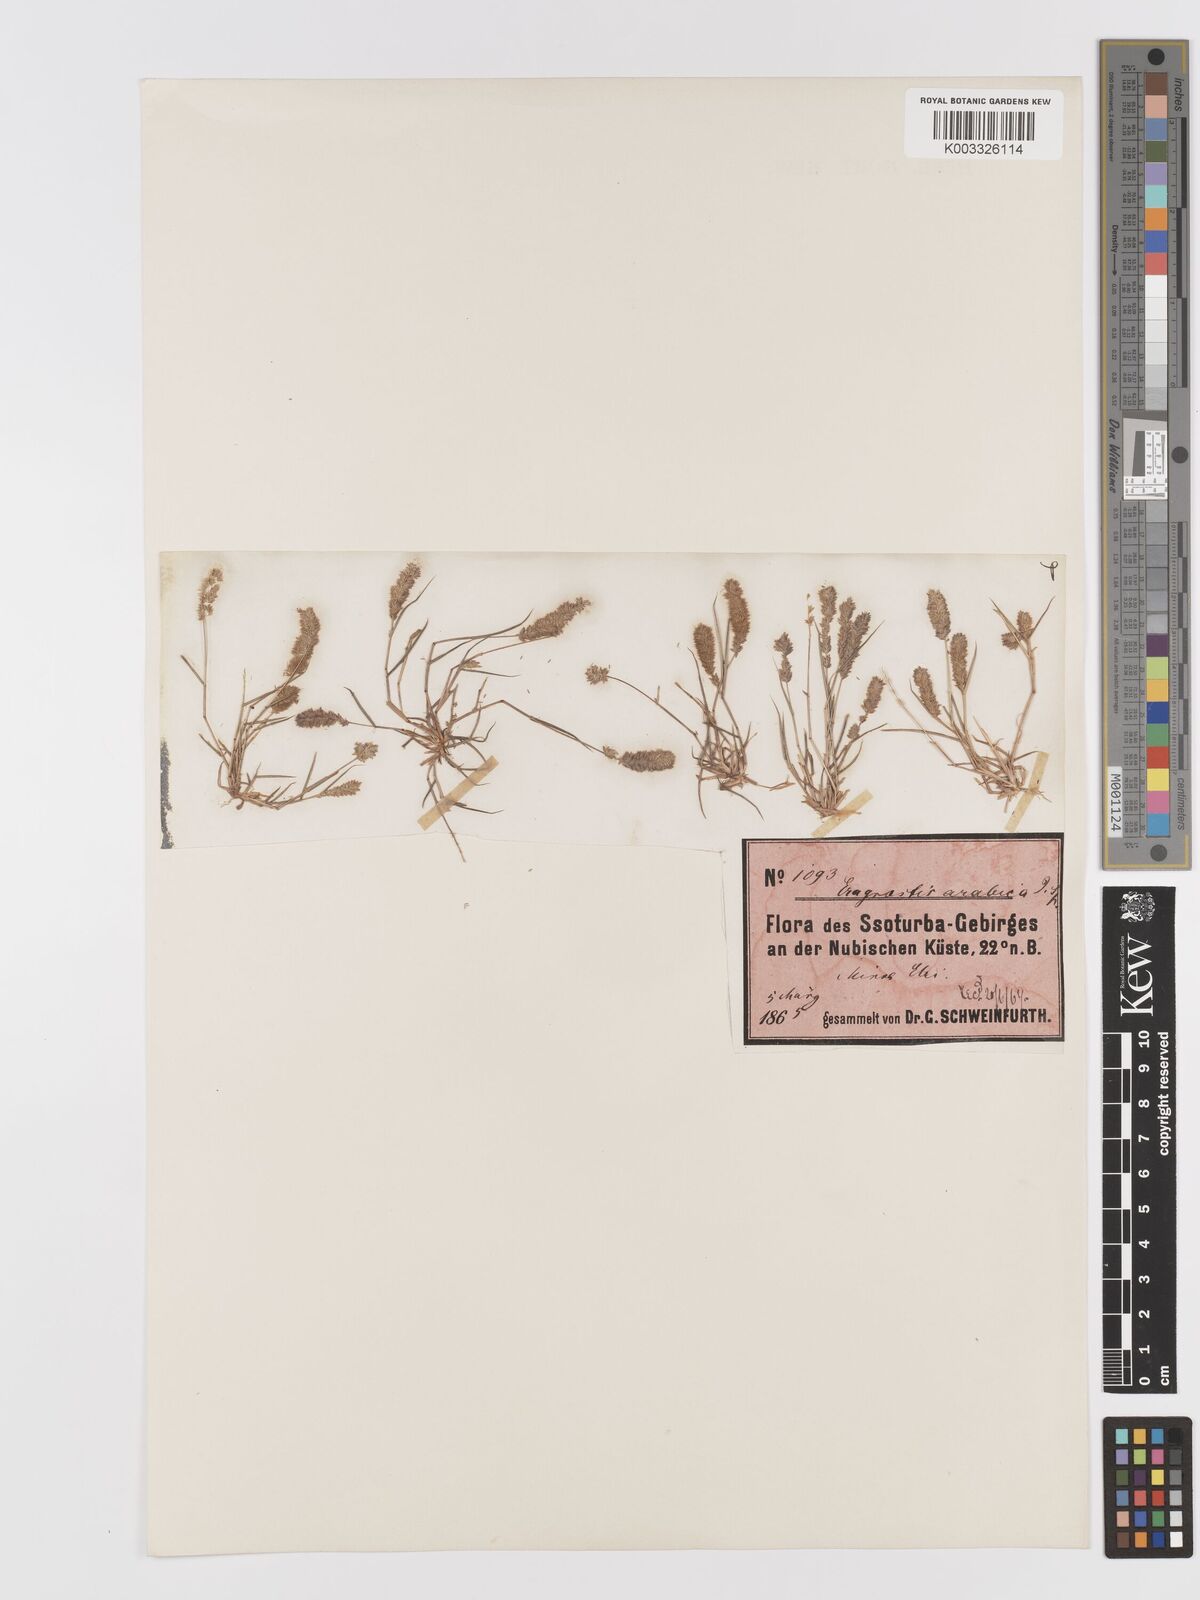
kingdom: Plantae
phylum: Tracheophyta
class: Liliopsida
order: Poales
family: Poaceae
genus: Eragrostis
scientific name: Eragrostis ciliaris
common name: Gophertail lovegrass
